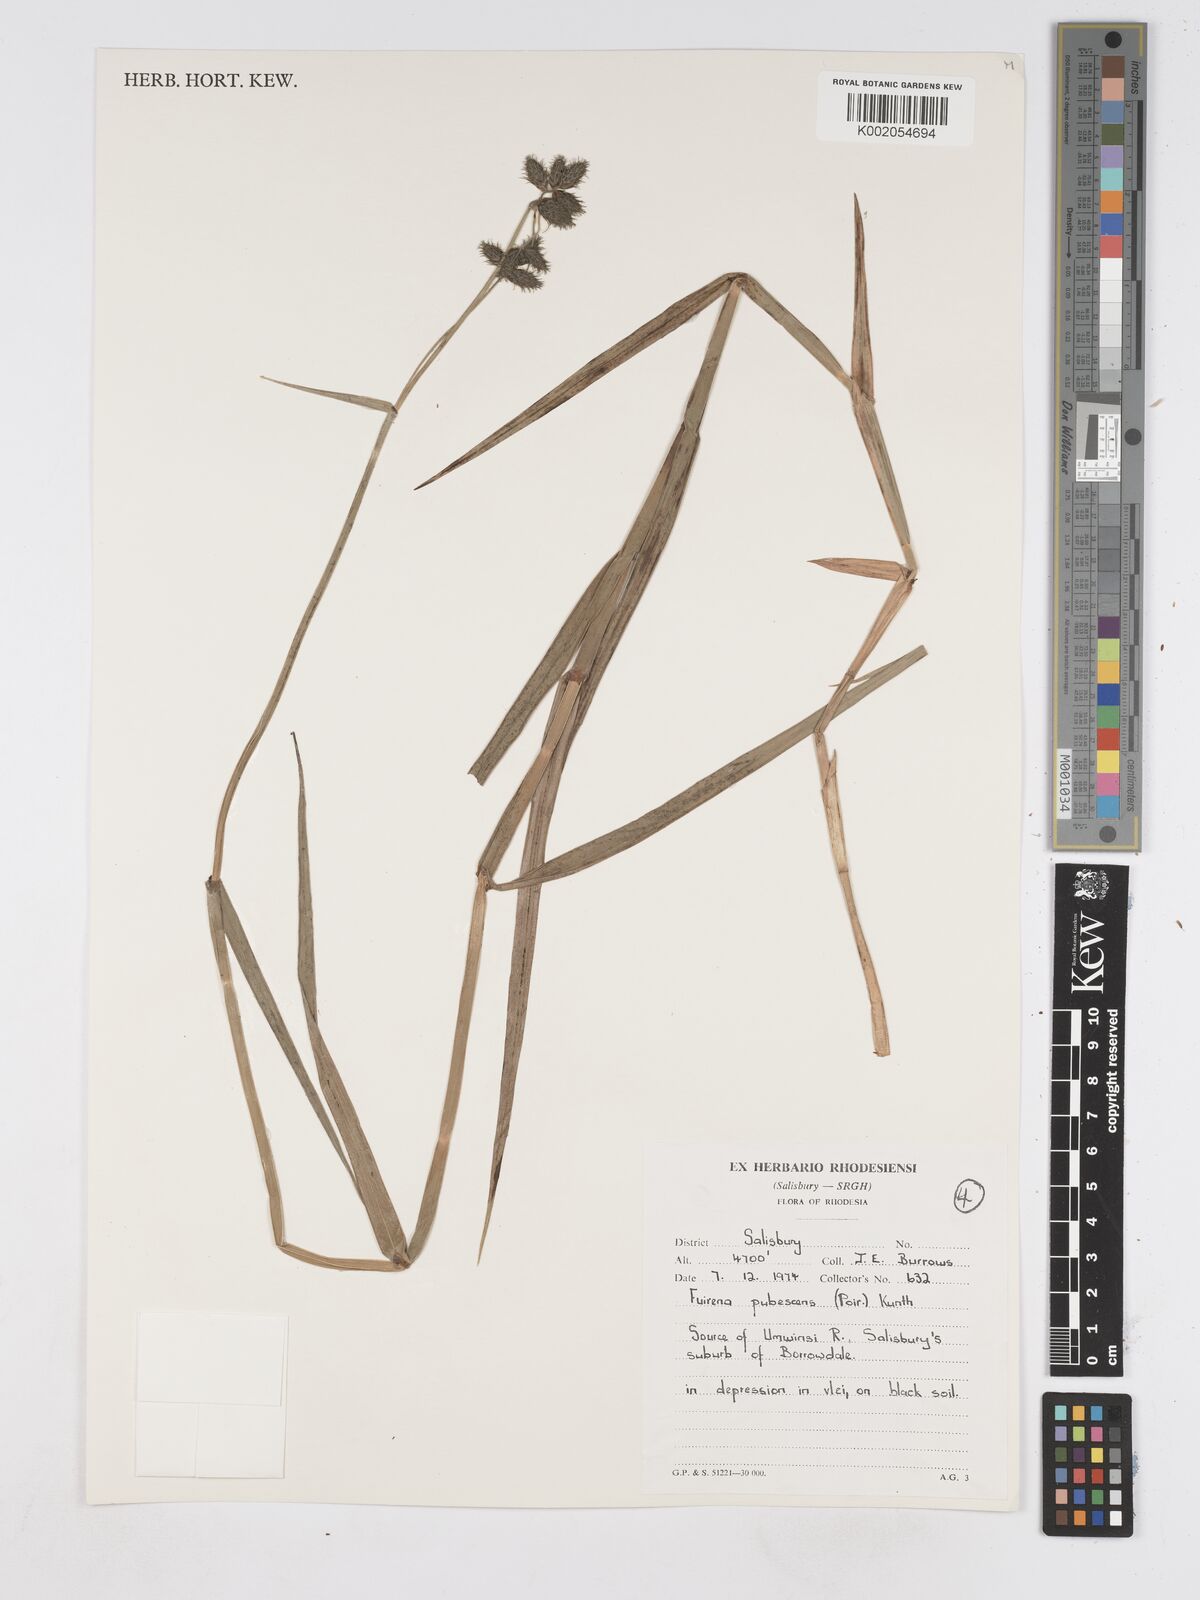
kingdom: Plantae
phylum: Tracheophyta
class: Liliopsida
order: Poales
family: Cyperaceae
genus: Fuirena
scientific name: Fuirena pachyrrhiza
